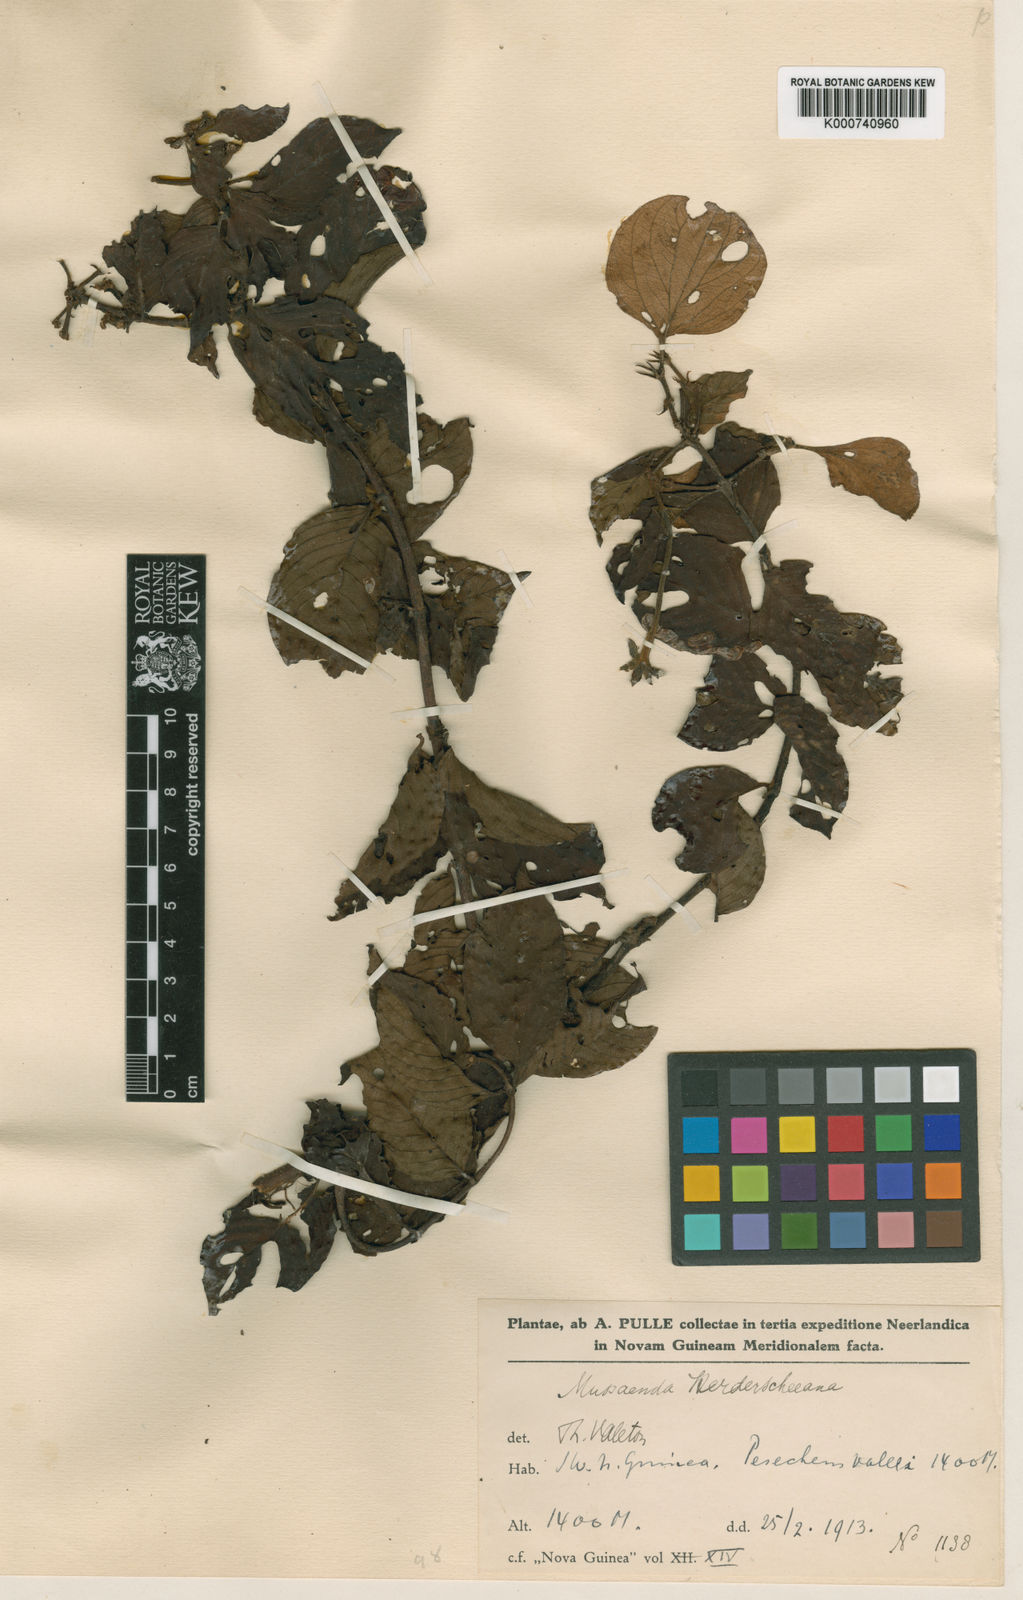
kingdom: Plantae
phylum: Tracheophyta
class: Magnoliopsida
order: Gentianales
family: Rubiaceae
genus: Mussaenda
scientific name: Mussaenda herderscheeana
